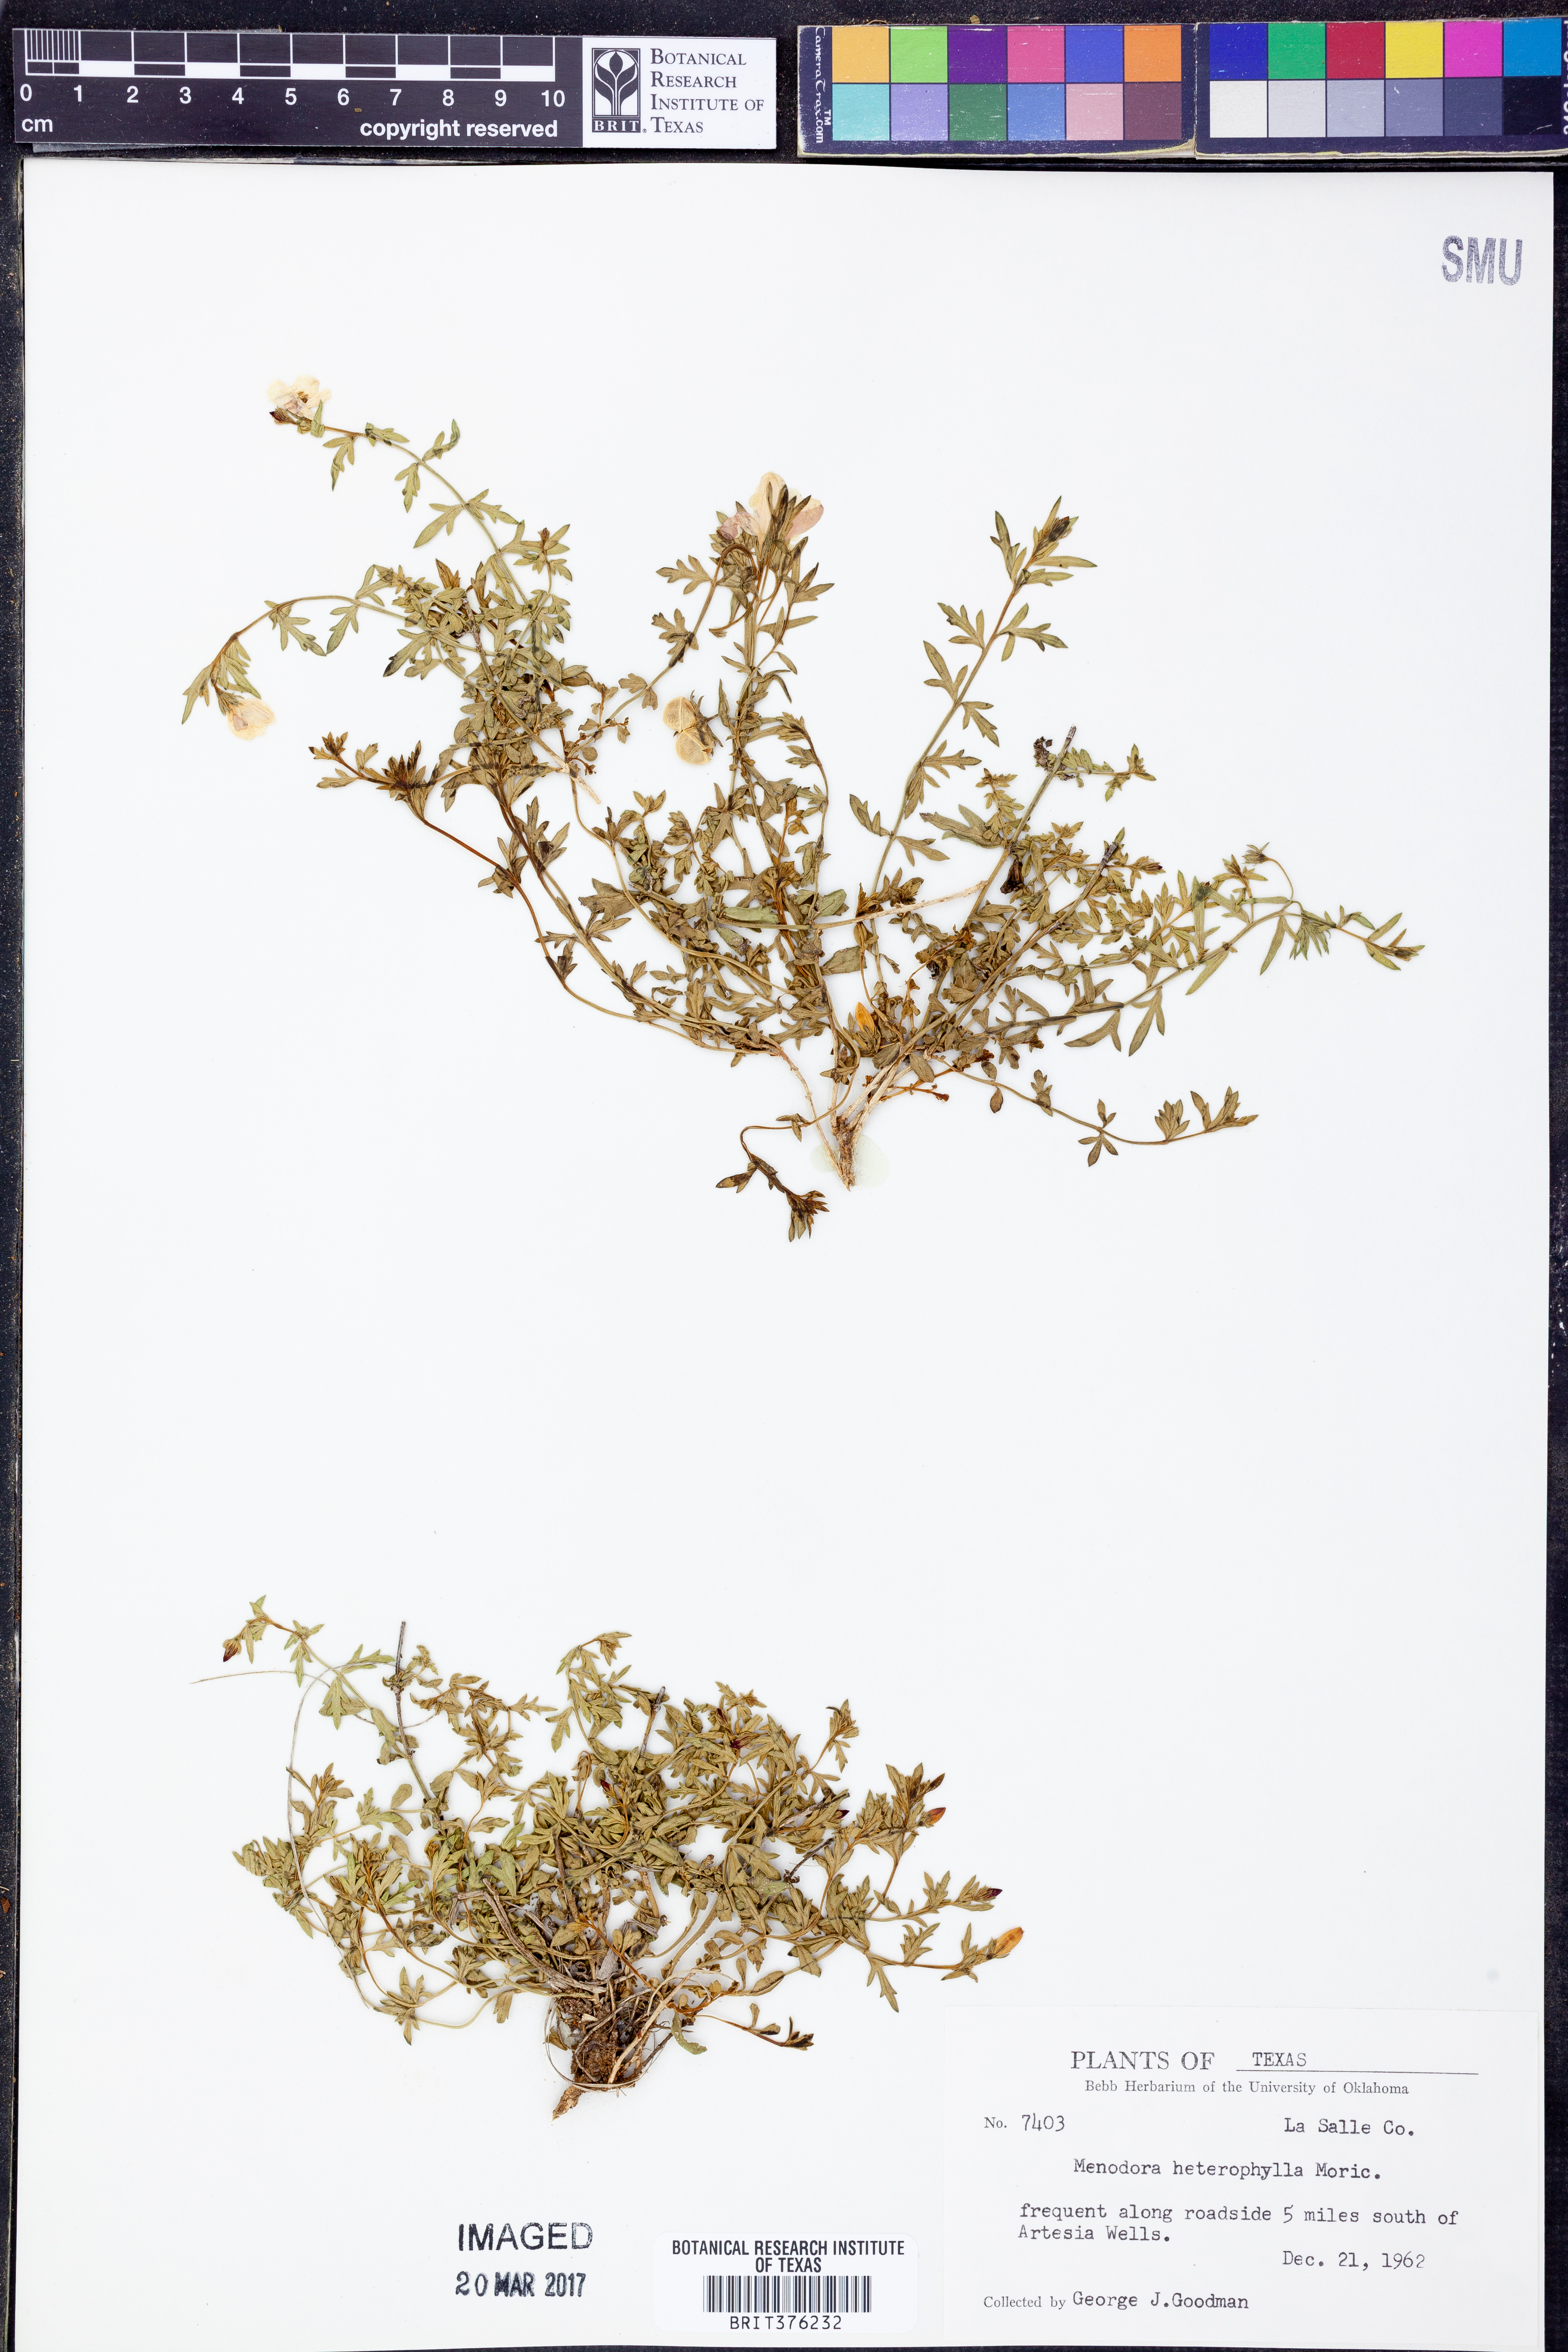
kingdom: Plantae
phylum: Tracheophyta
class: Magnoliopsida
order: Lamiales
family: Oleaceae
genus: Menodora
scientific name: Menodora heterophylla
